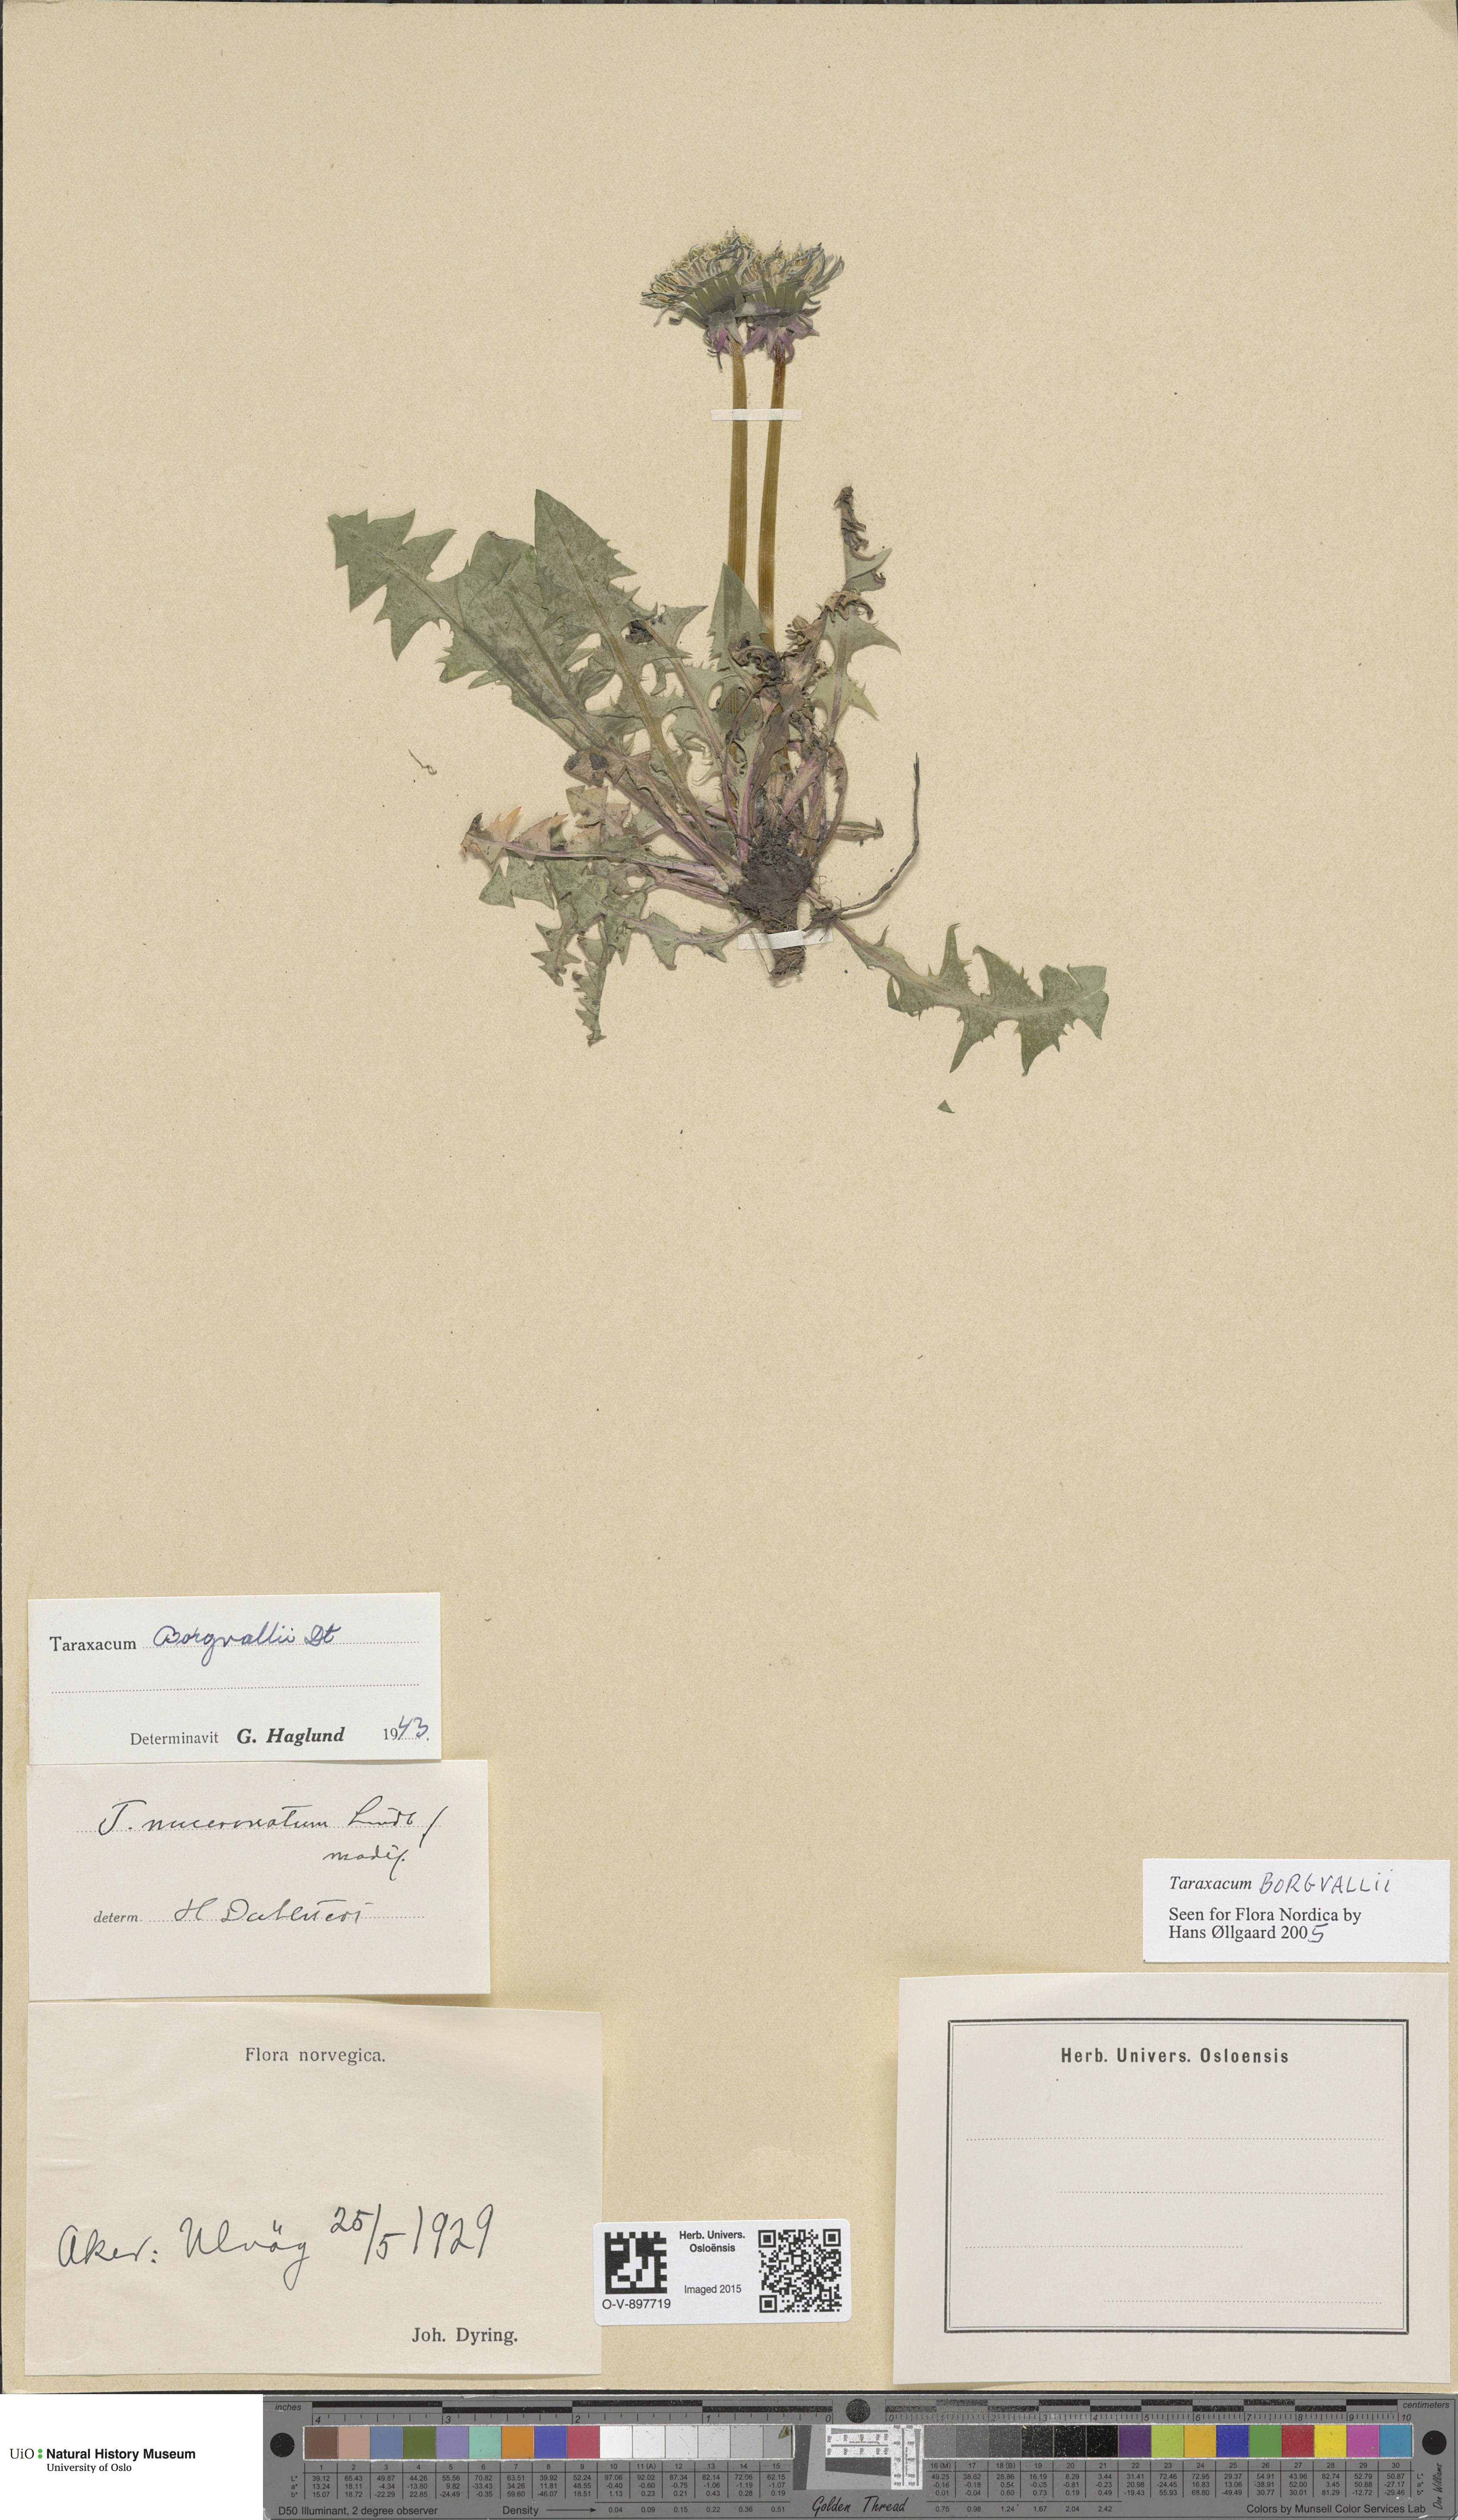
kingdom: Plantae
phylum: Tracheophyta
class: Magnoliopsida
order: Asterales
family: Asteraceae
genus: Taraxacum
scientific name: Taraxacum borgvallii
